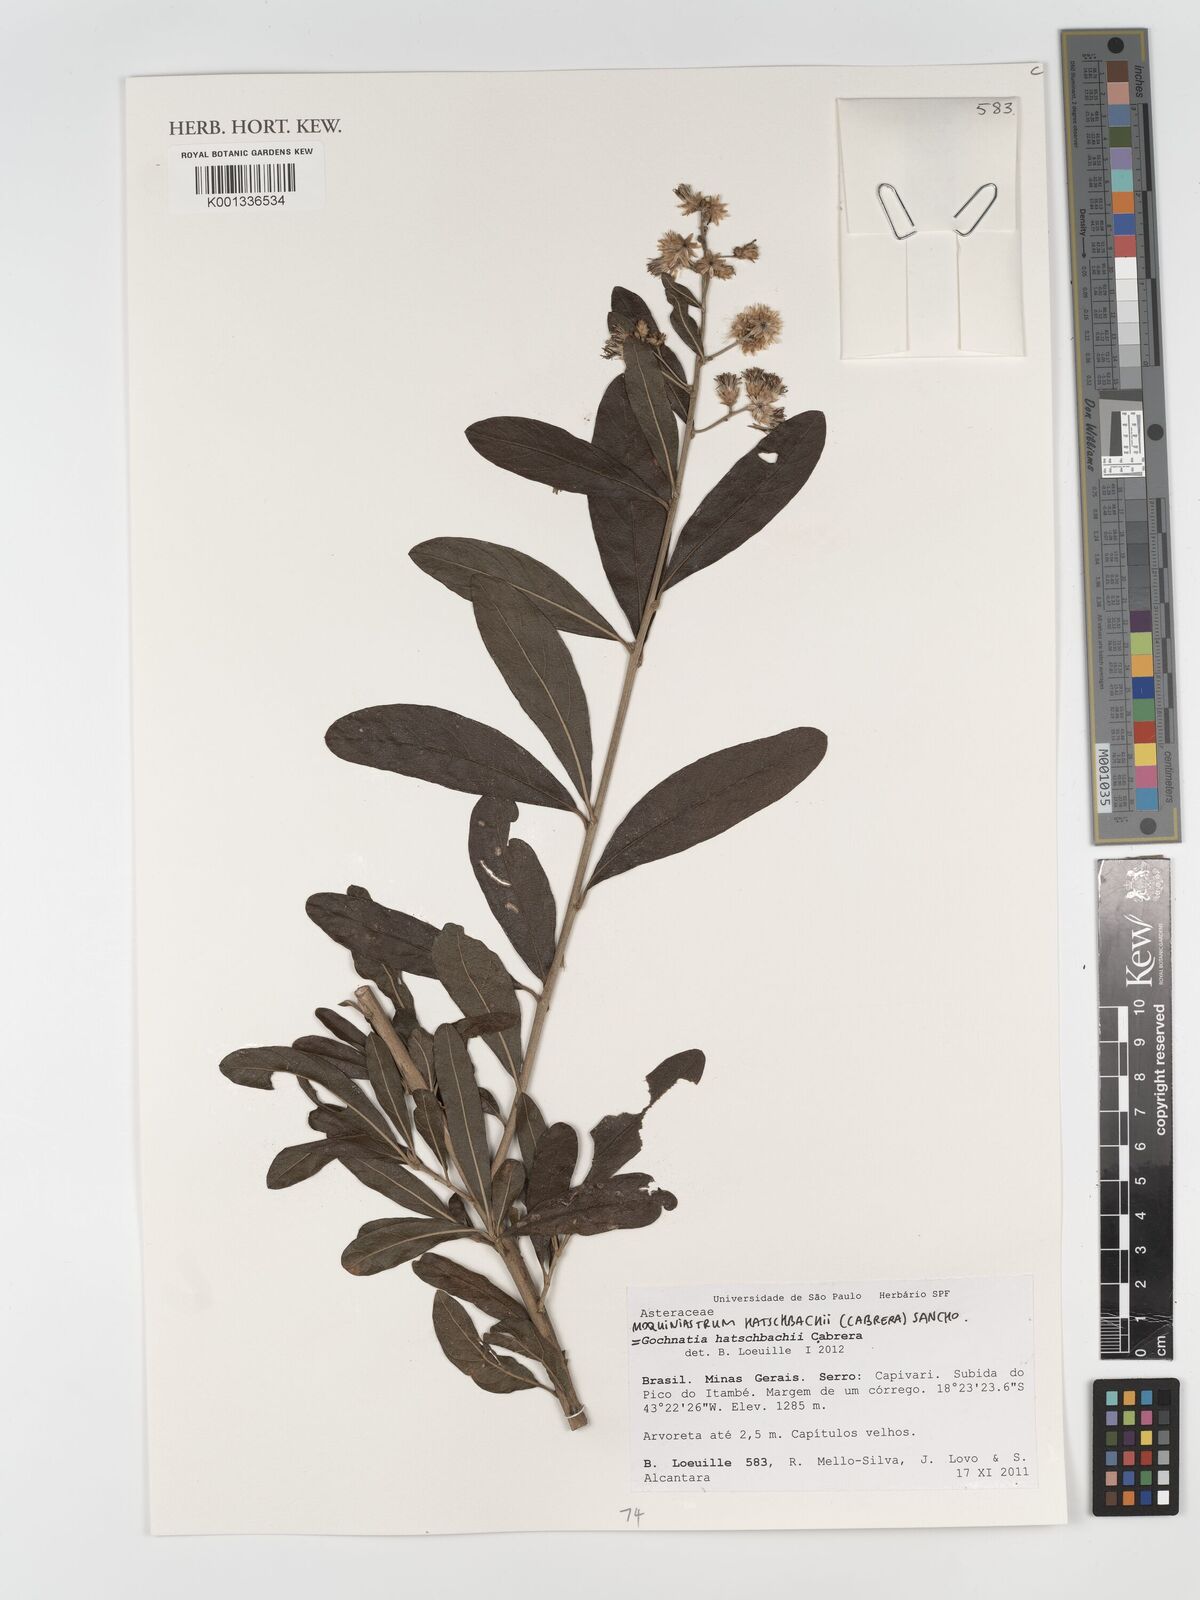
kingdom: Plantae
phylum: Tracheophyta
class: Magnoliopsida
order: Asterales
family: Asteraceae
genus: Moquiniastrum
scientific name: Moquiniastrum hatschbachii
